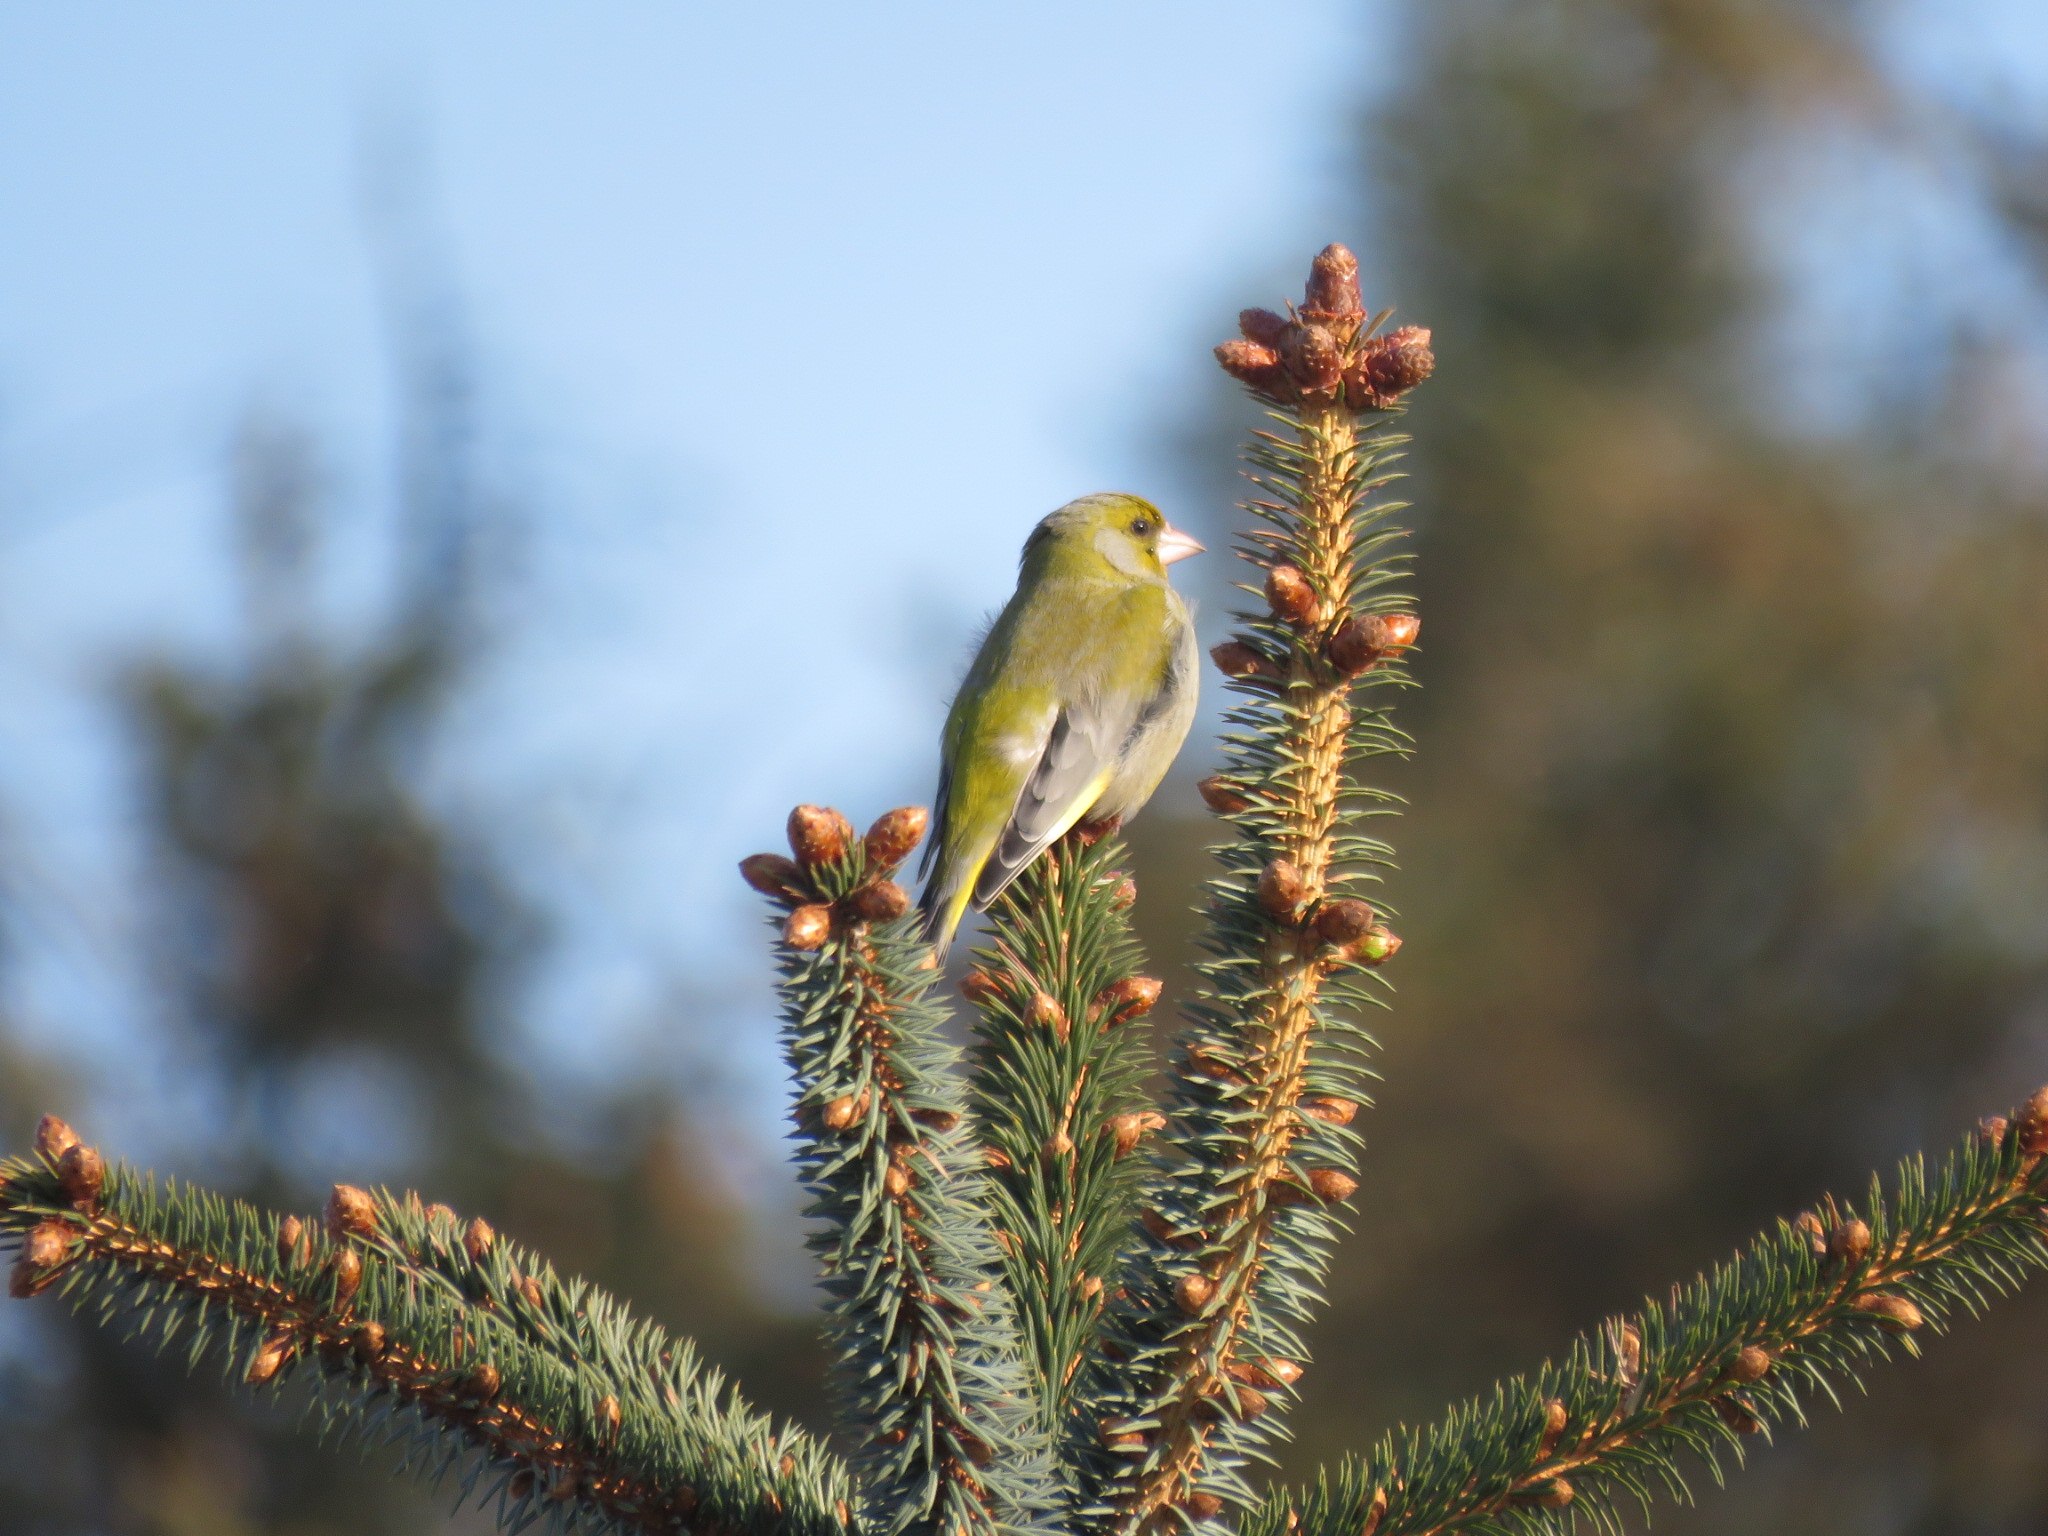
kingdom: Plantae
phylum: Tracheophyta
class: Liliopsida
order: Poales
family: Poaceae
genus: Chloris
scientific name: Chloris chloris
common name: Grønirisk
